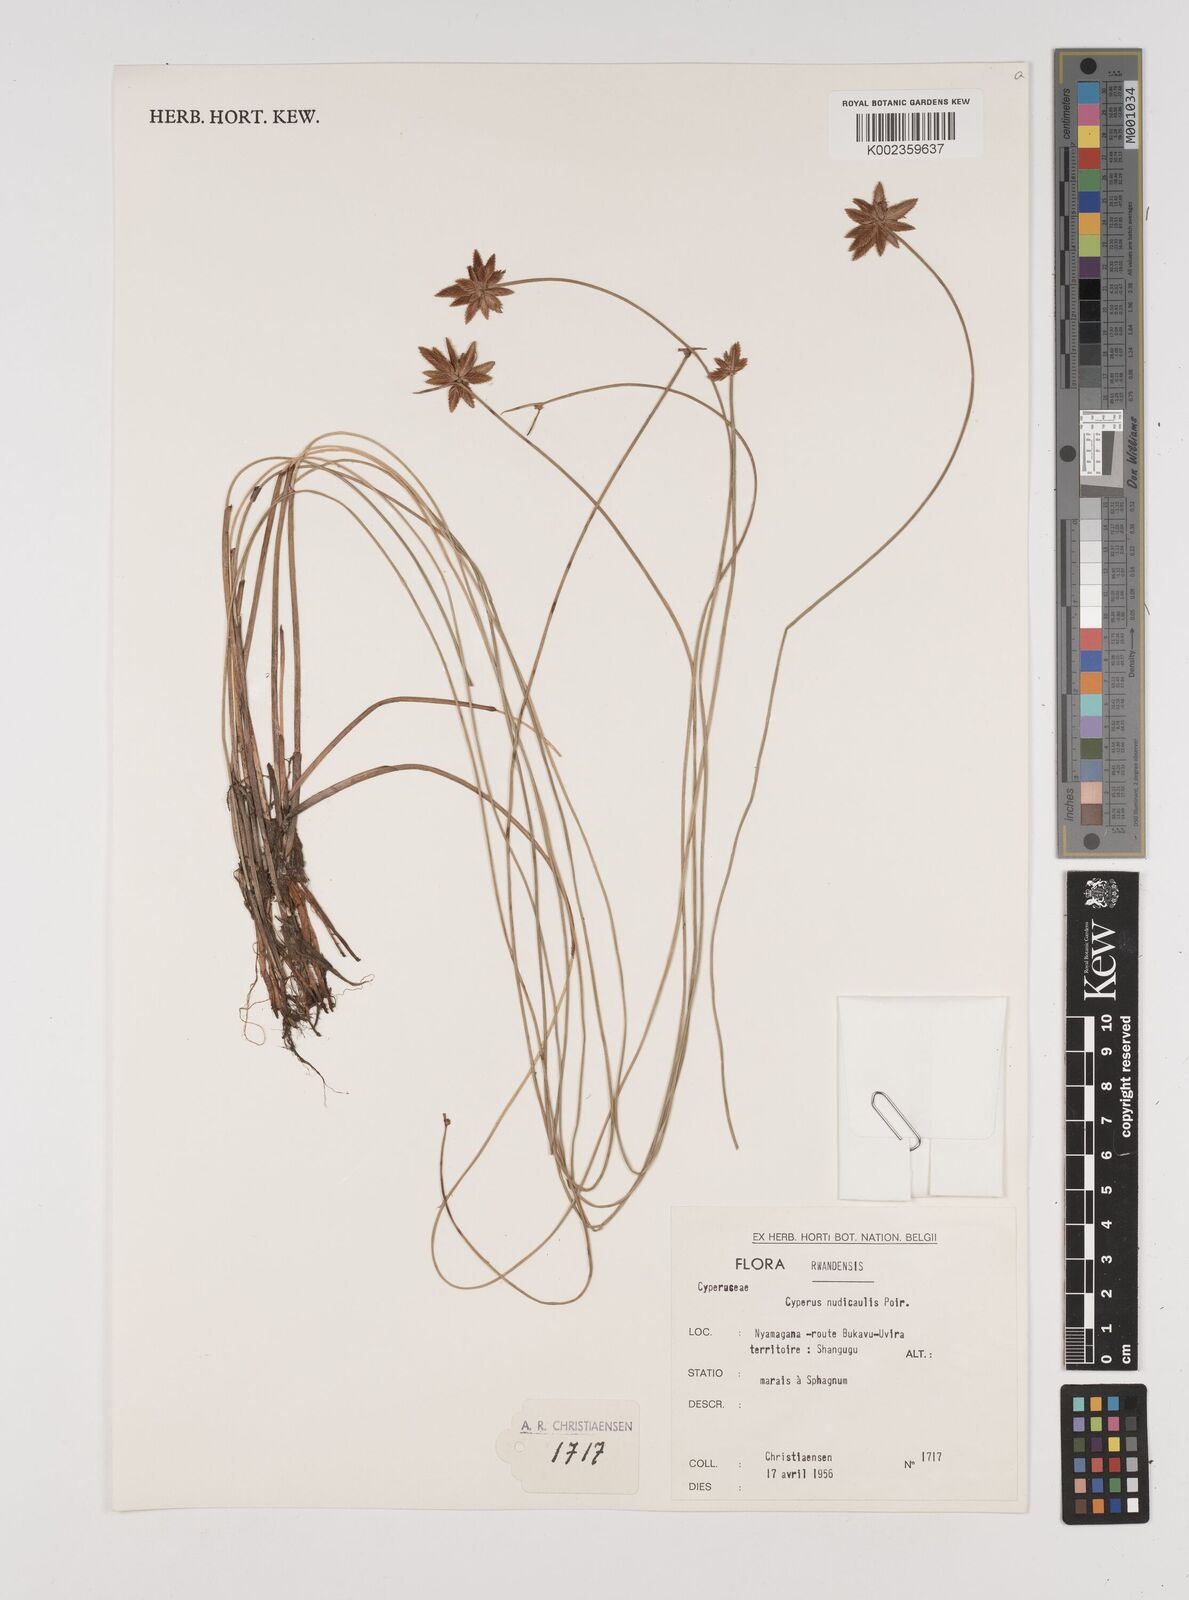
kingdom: Plantae
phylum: Tracheophyta
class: Liliopsida
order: Poales
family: Cyperaceae
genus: Cyperus
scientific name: Cyperus pectinatus
